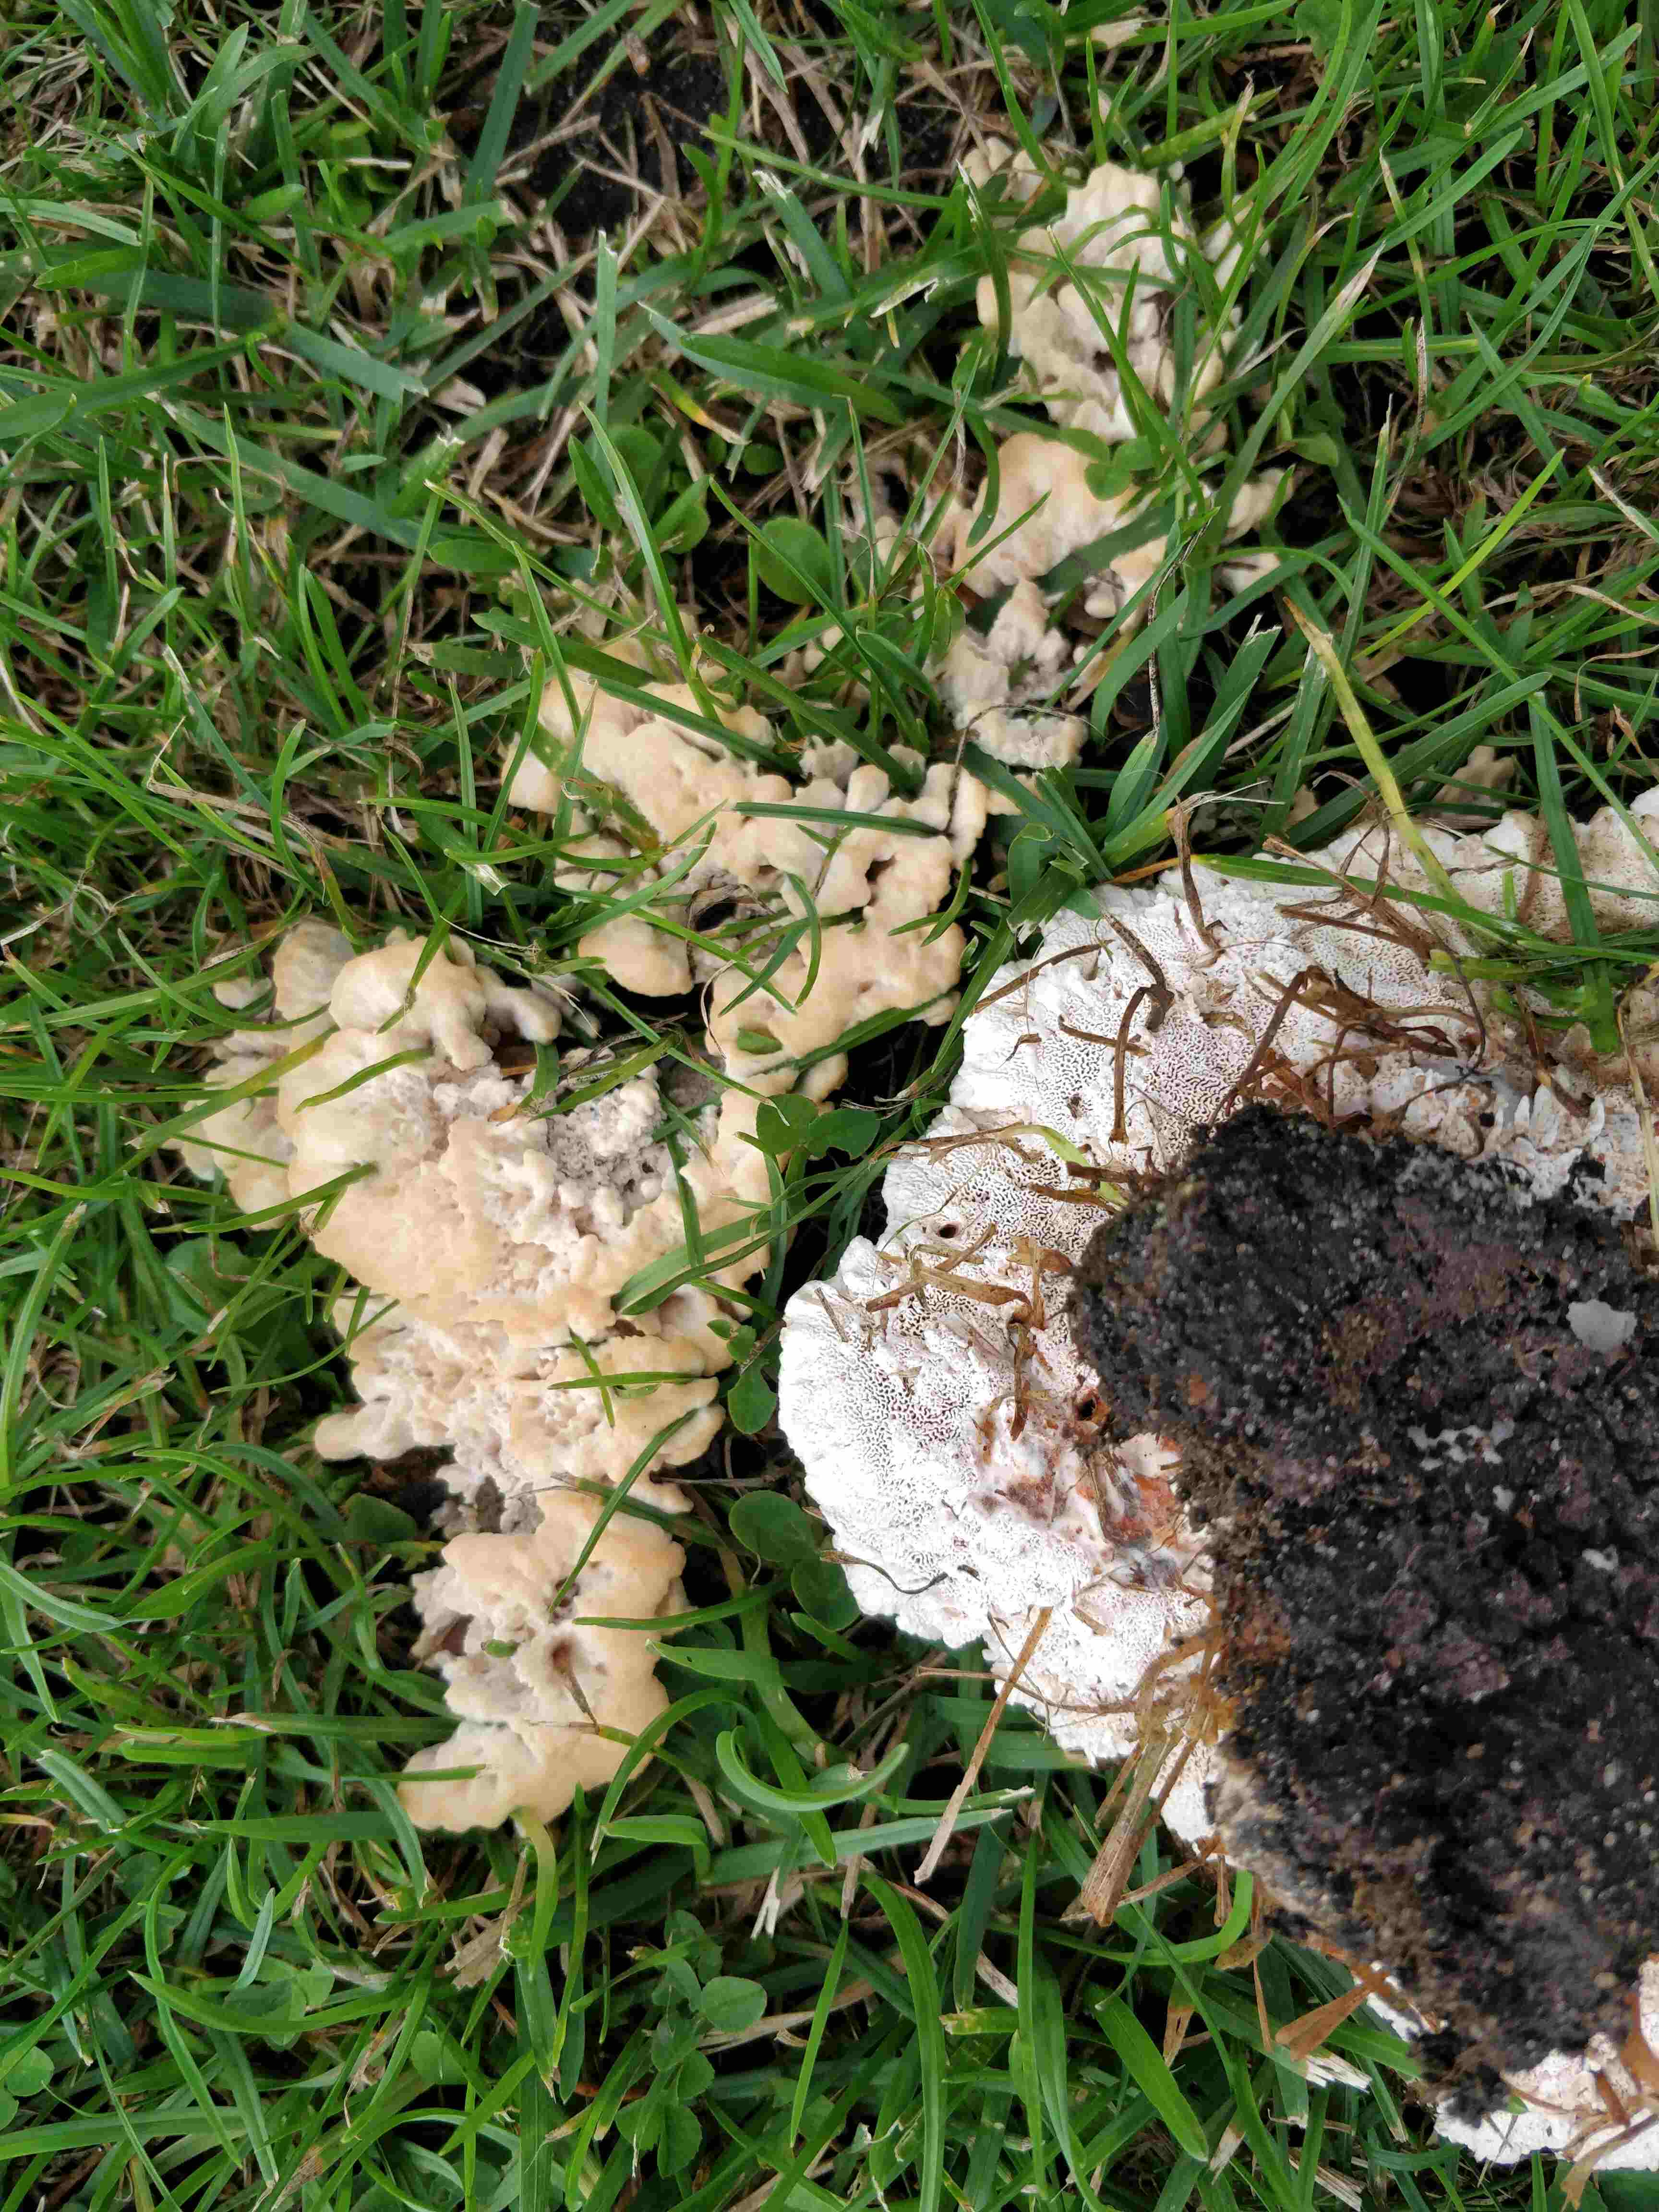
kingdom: Fungi
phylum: Basidiomycota
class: Agaricomycetes
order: Polyporales
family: Podoscyphaceae
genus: Abortiporus
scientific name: Abortiporus biennis
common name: rødmende pjalteporesvamp
